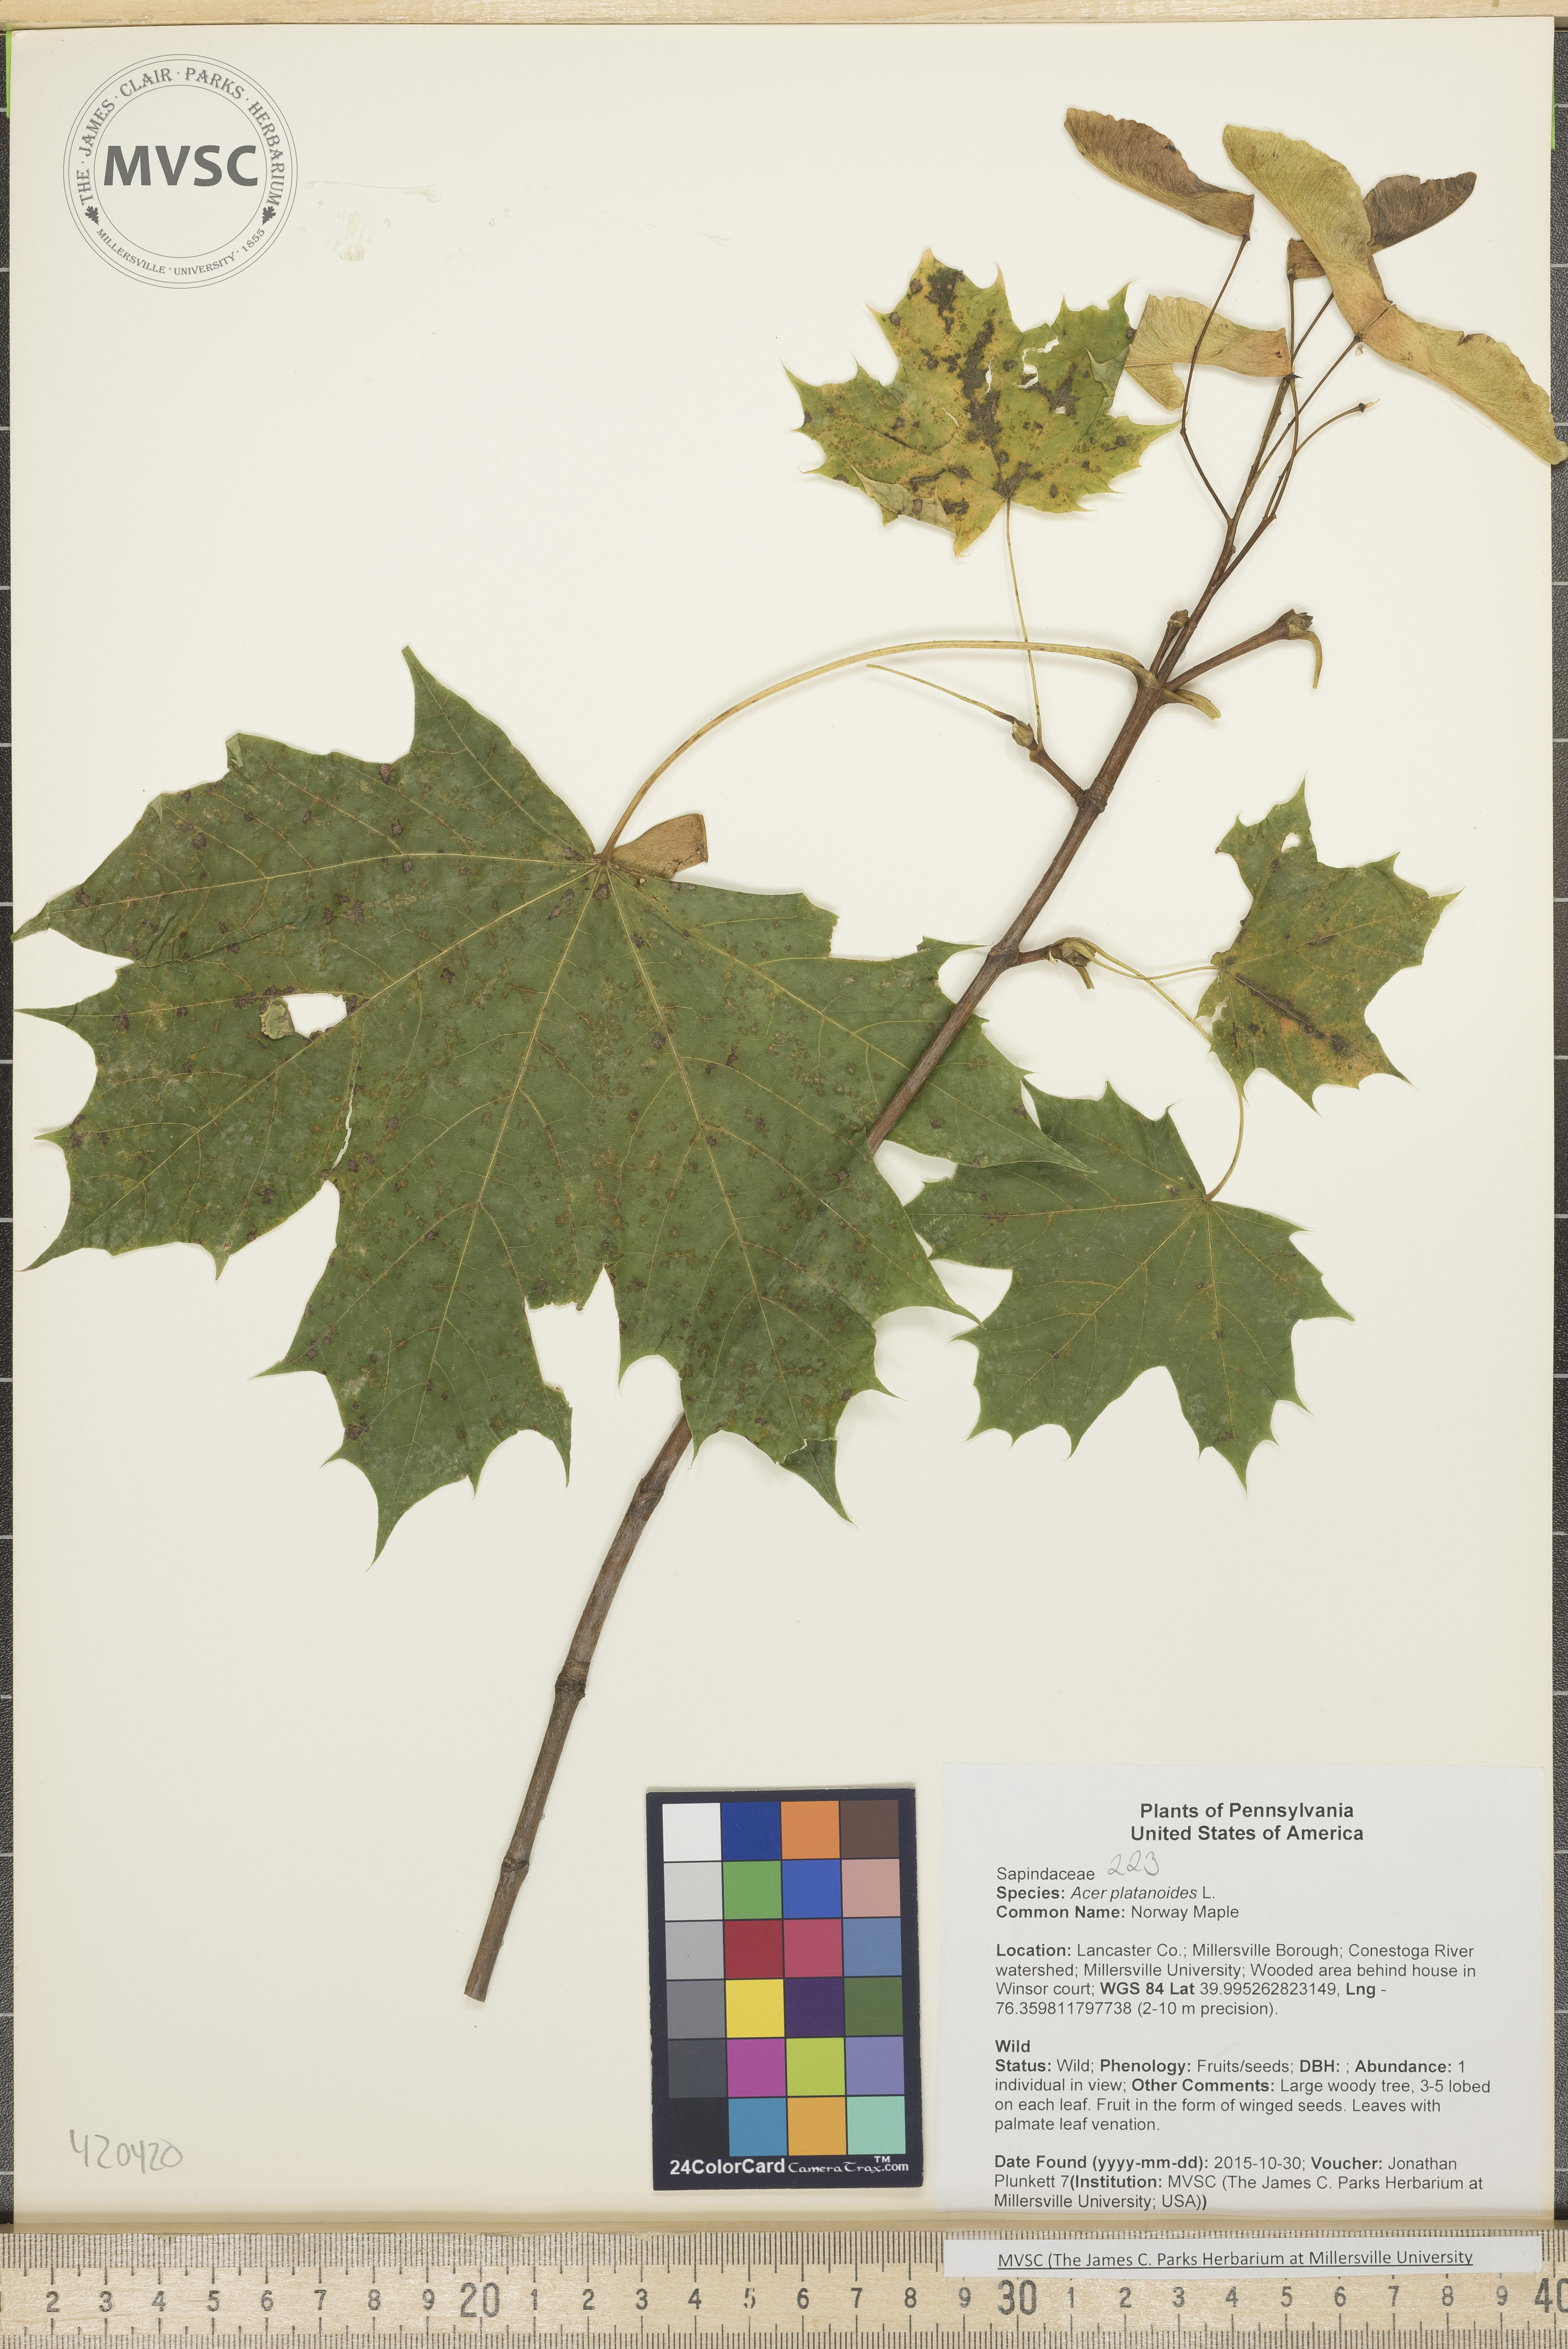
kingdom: Plantae
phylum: Tracheophyta
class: Magnoliopsida
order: Sapindales
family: Sapindaceae
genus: Acer
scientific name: Acer platanoides
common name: Norway Maple
